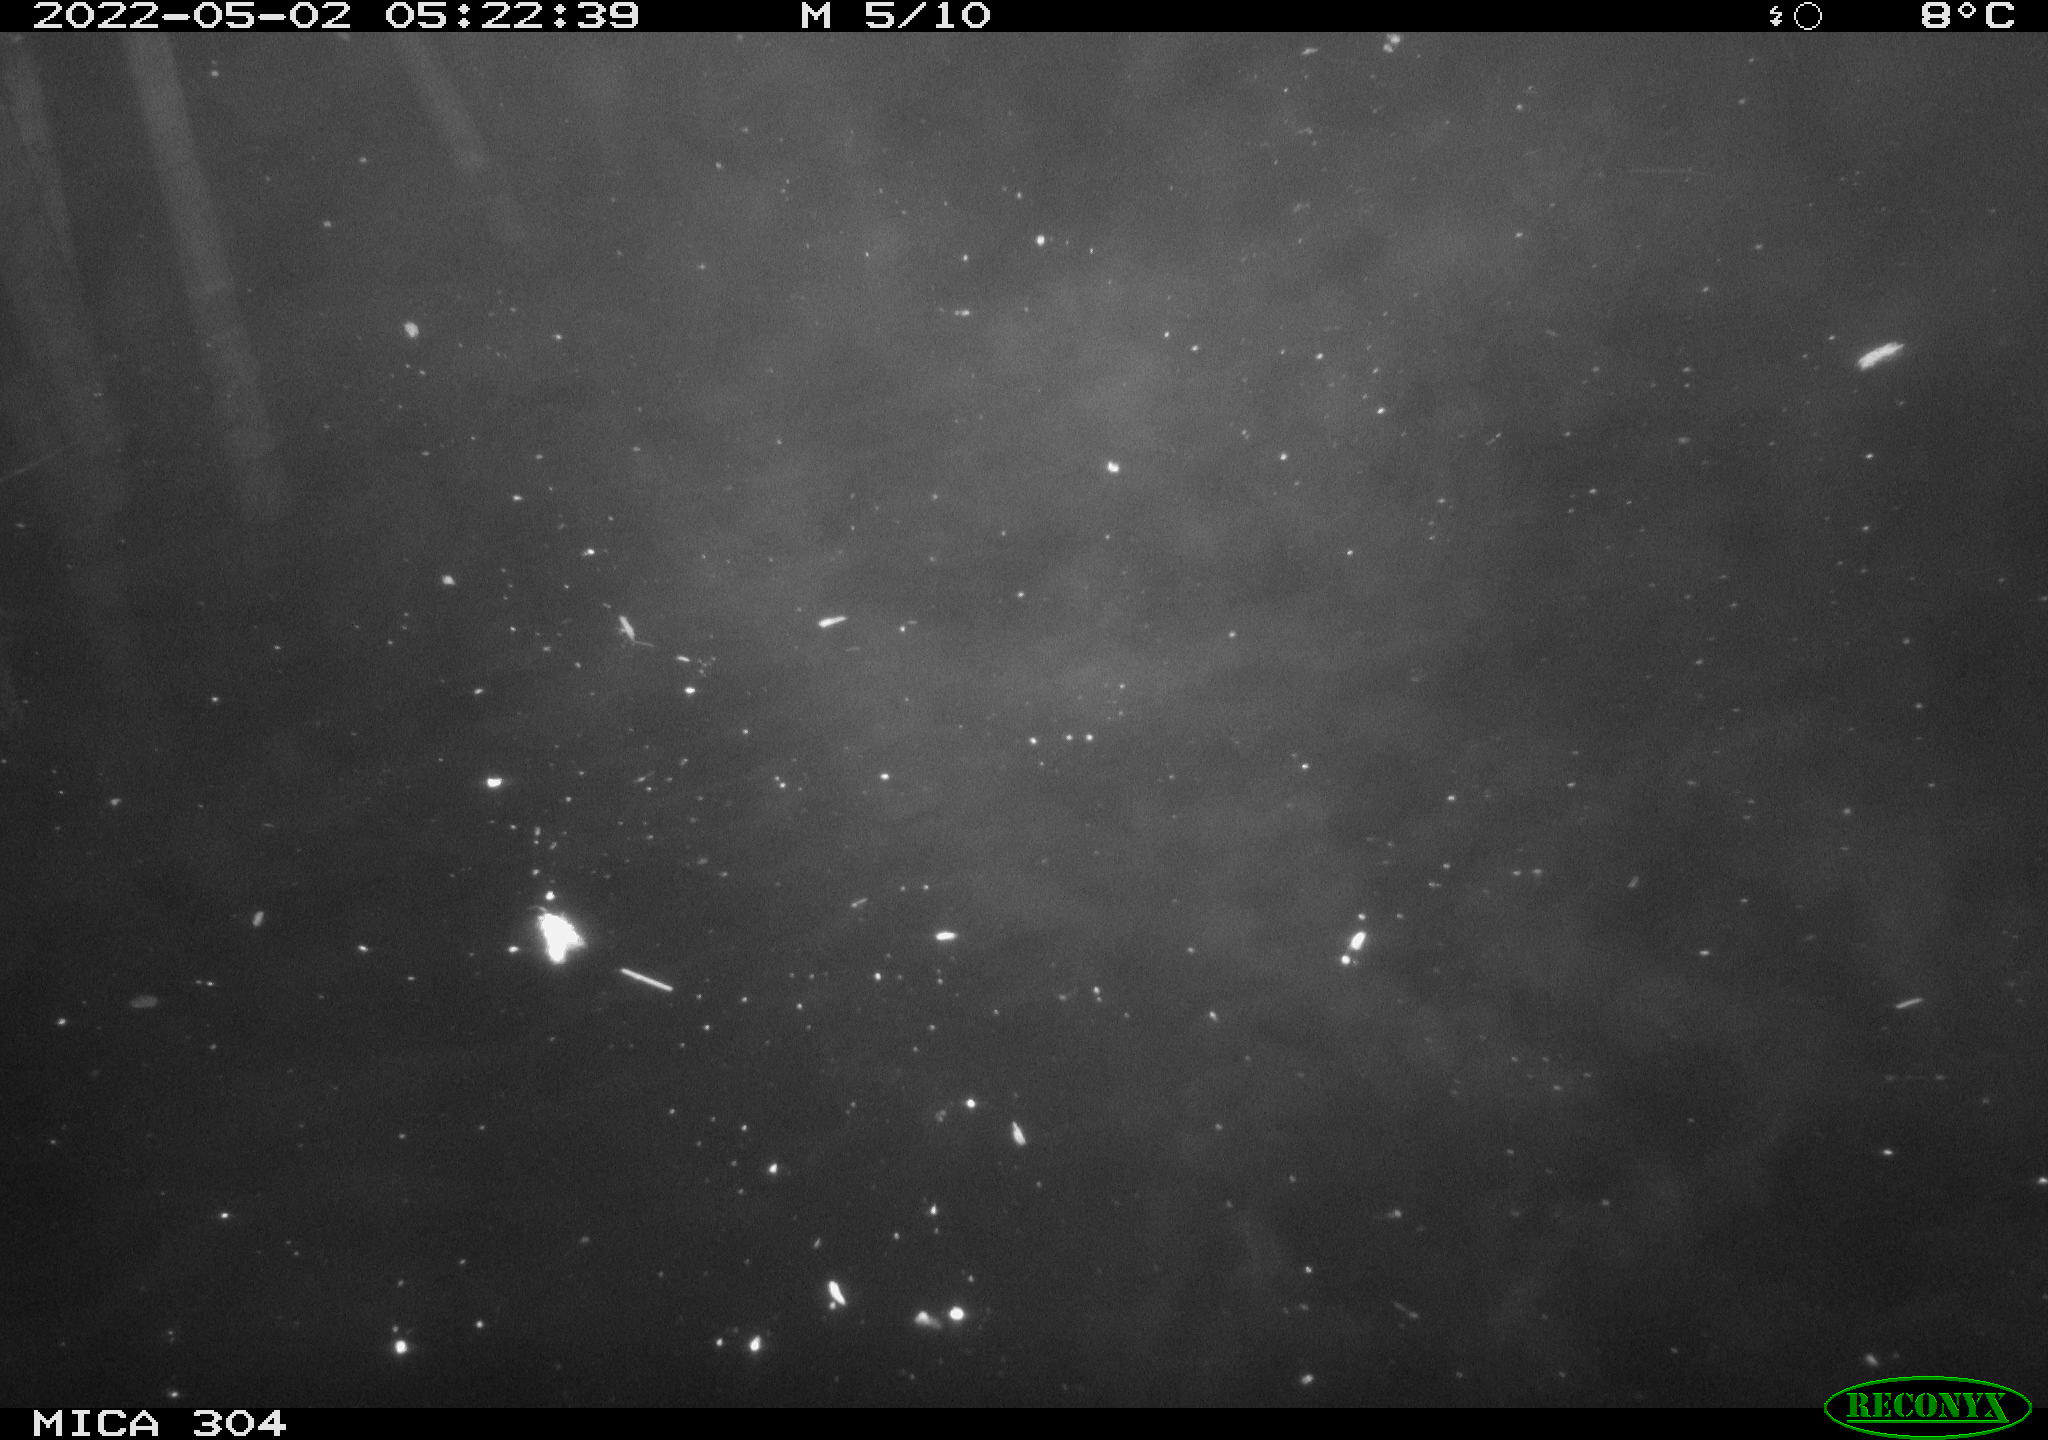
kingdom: Animalia
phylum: Chordata
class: Aves
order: Anseriformes
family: Anatidae
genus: Anas
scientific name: Anas platyrhynchos
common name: Mallard
